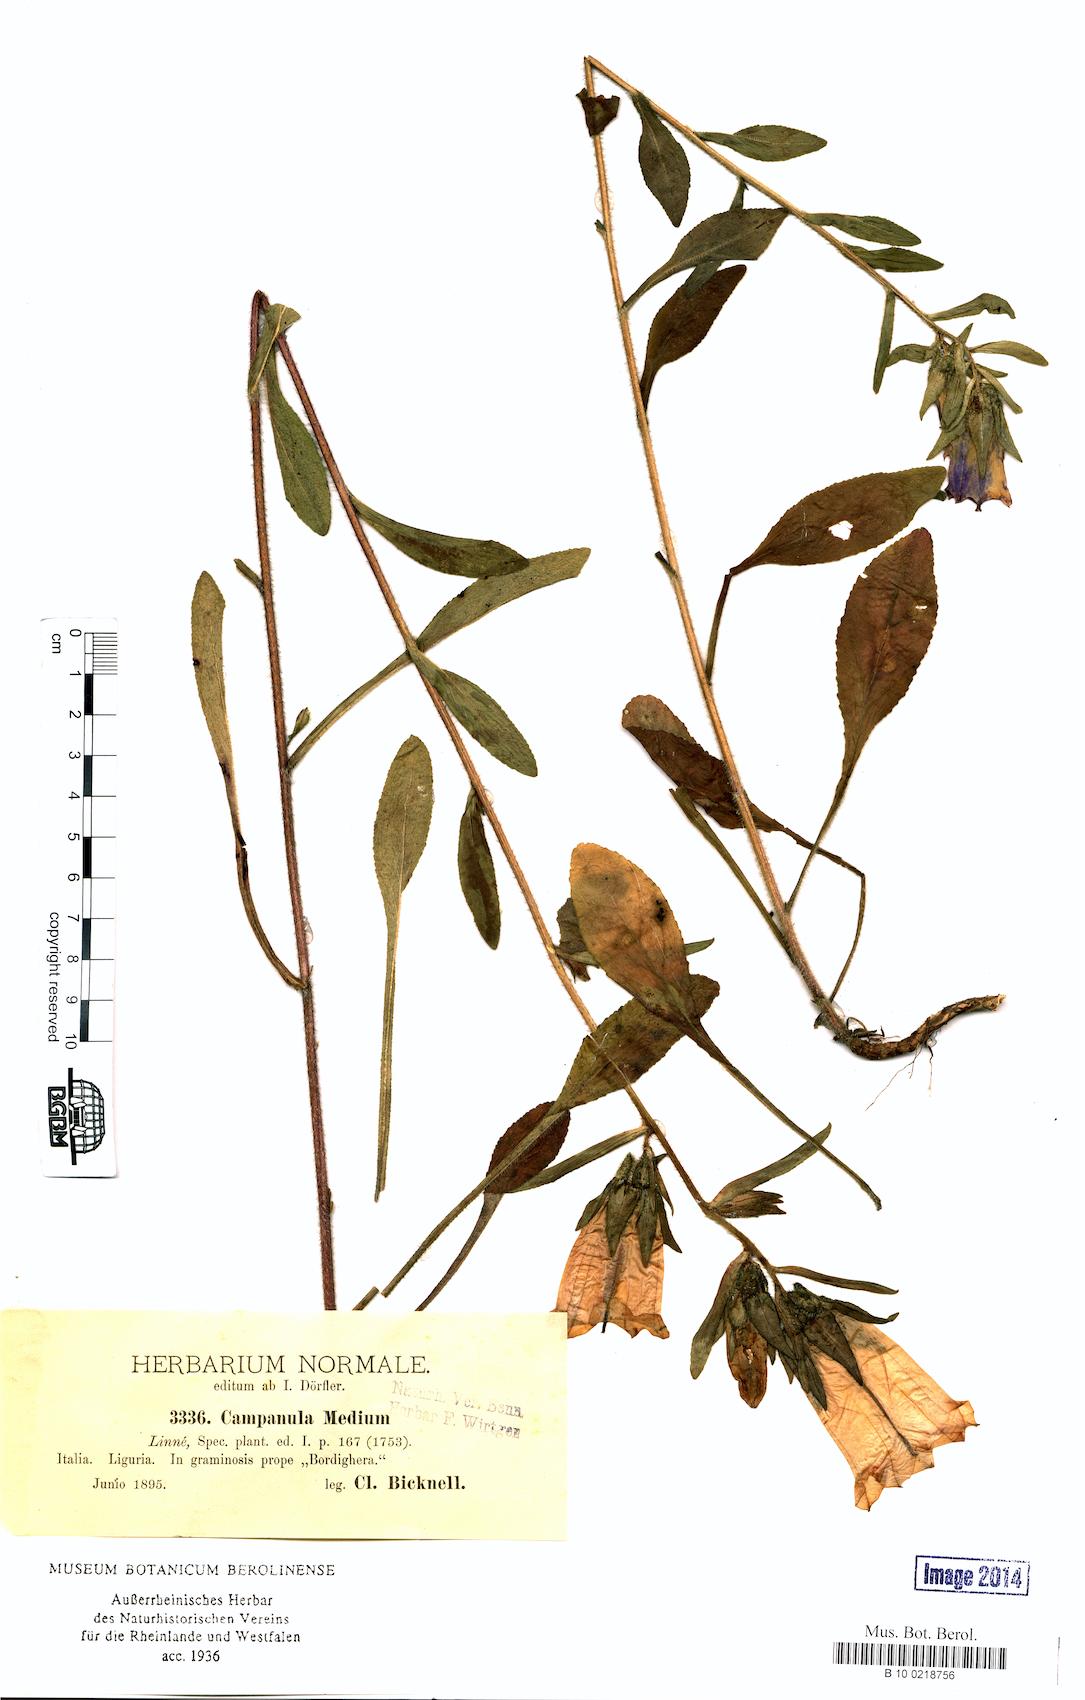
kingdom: Plantae
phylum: Tracheophyta
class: Magnoliopsida
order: Asterales
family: Campanulaceae
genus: Campanula
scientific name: Campanula medium
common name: Canterbury bells
